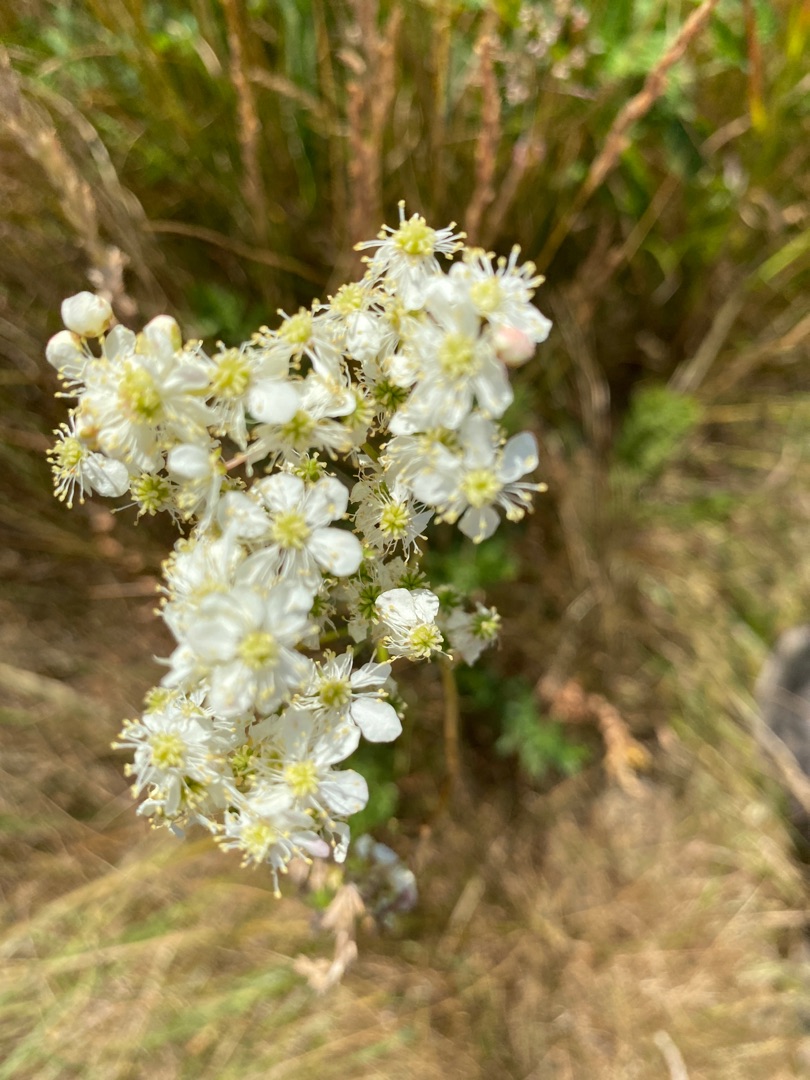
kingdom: Plantae
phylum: Tracheophyta
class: Magnoliopsida
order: Rosales
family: Rosaceae
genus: Filipendula
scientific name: Filipendula vulgaris
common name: Knoldet mjødurt
